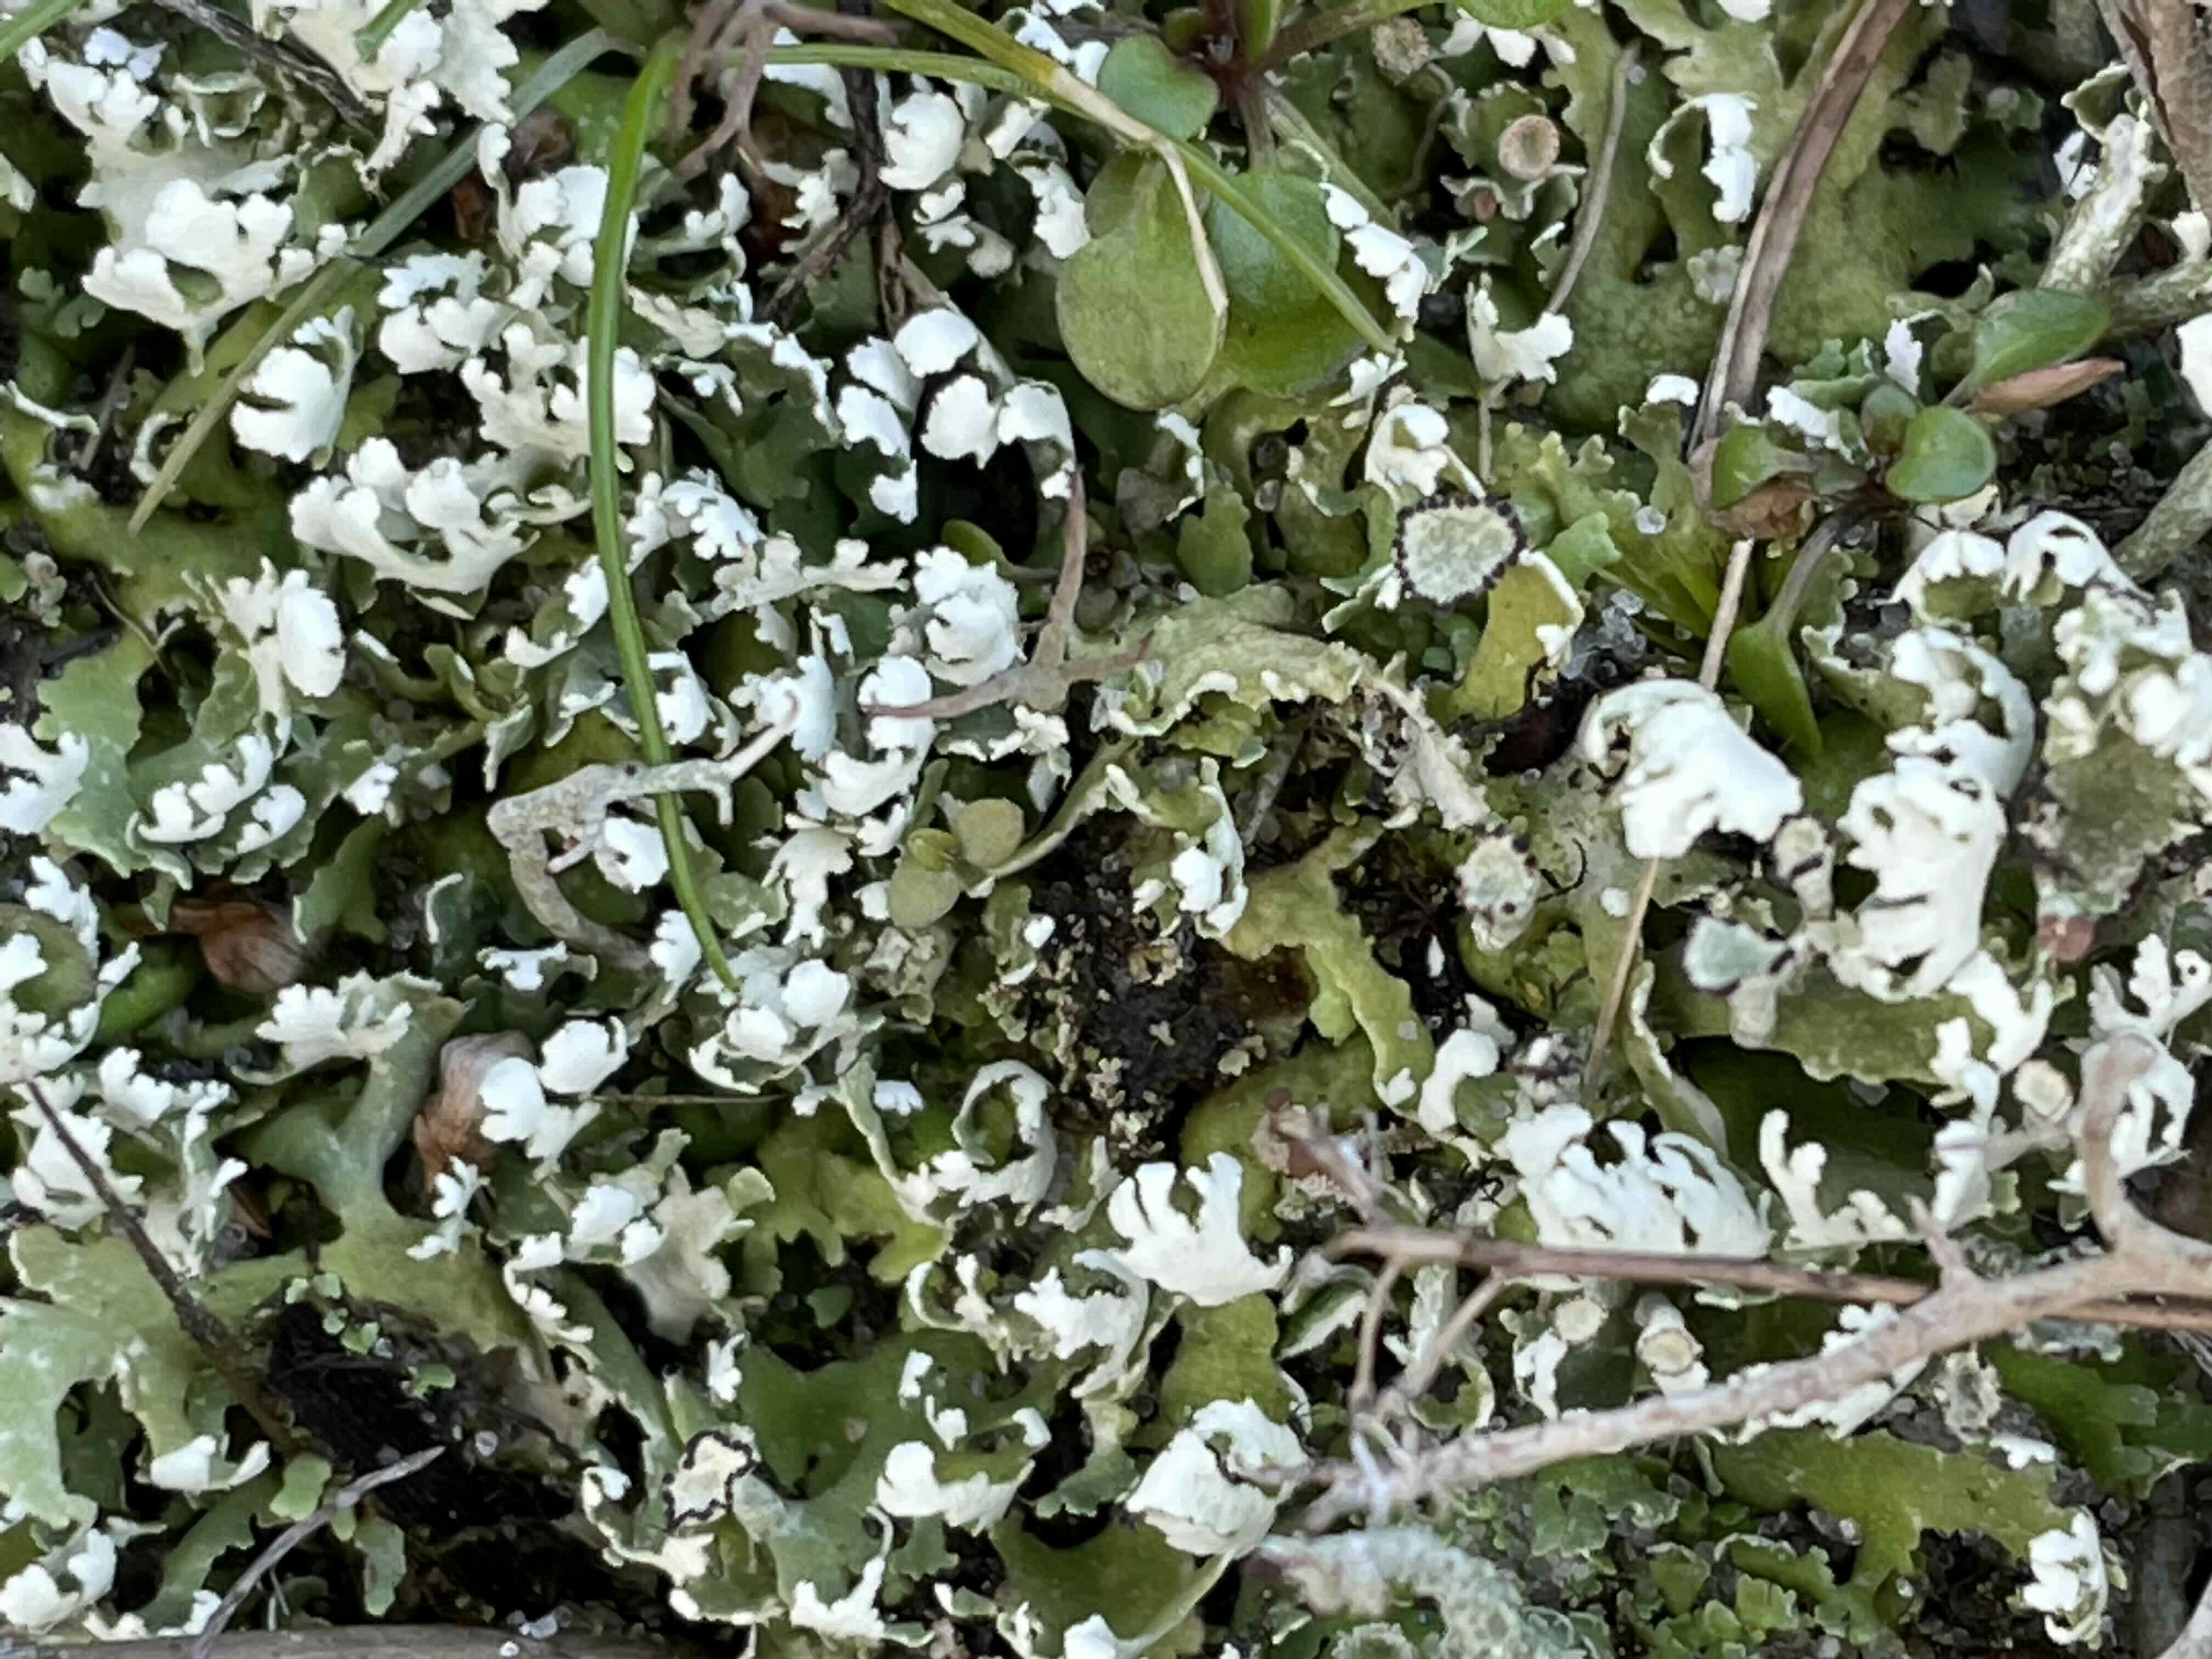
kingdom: Fungi
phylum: Ascomycota
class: Lecanoromycetes
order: Lecanorales
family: Cladoniaceae
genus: Cladonia
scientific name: Cladonia foliacea
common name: fliget bægerlav
